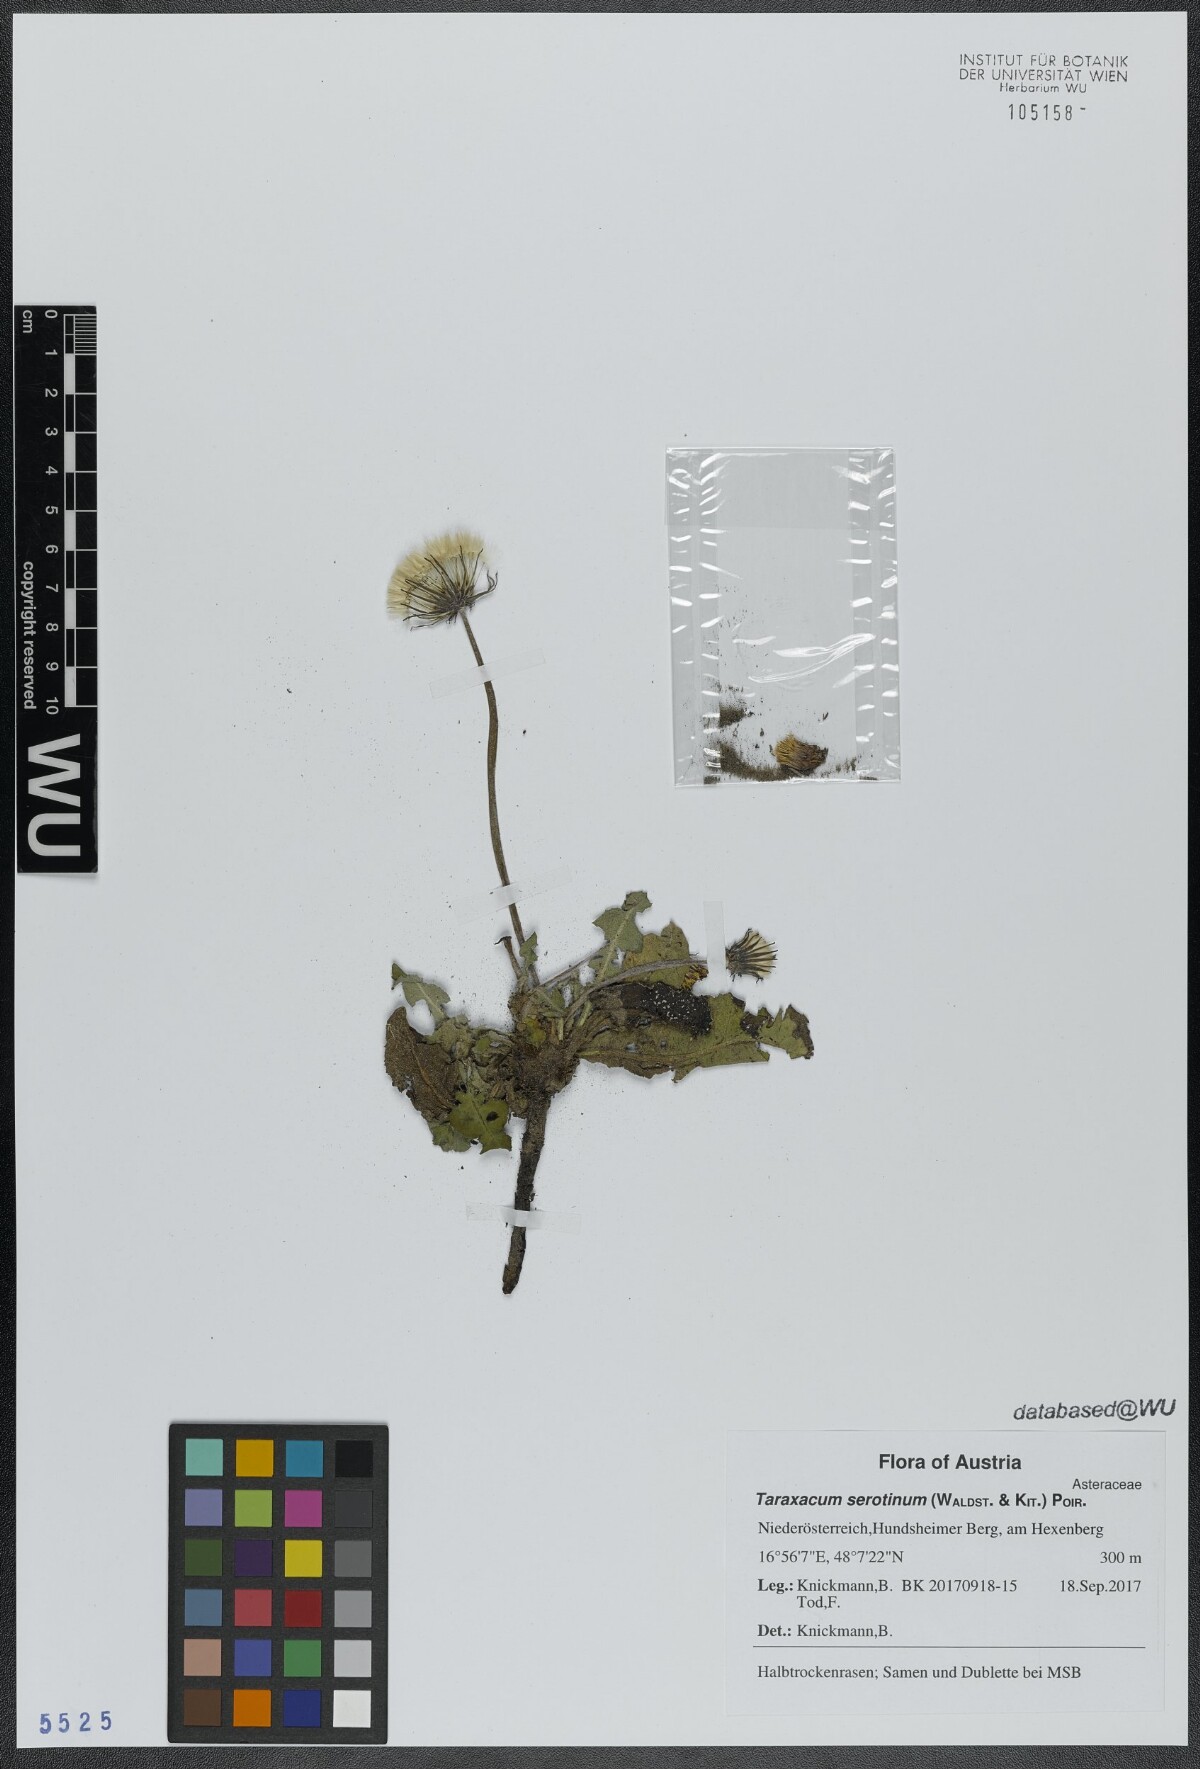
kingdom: Plantae
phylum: Tracheophyta
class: Magnoliopsida
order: Asterales
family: Asteraceae
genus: Taraxacum
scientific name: Taraxacum serotinum
